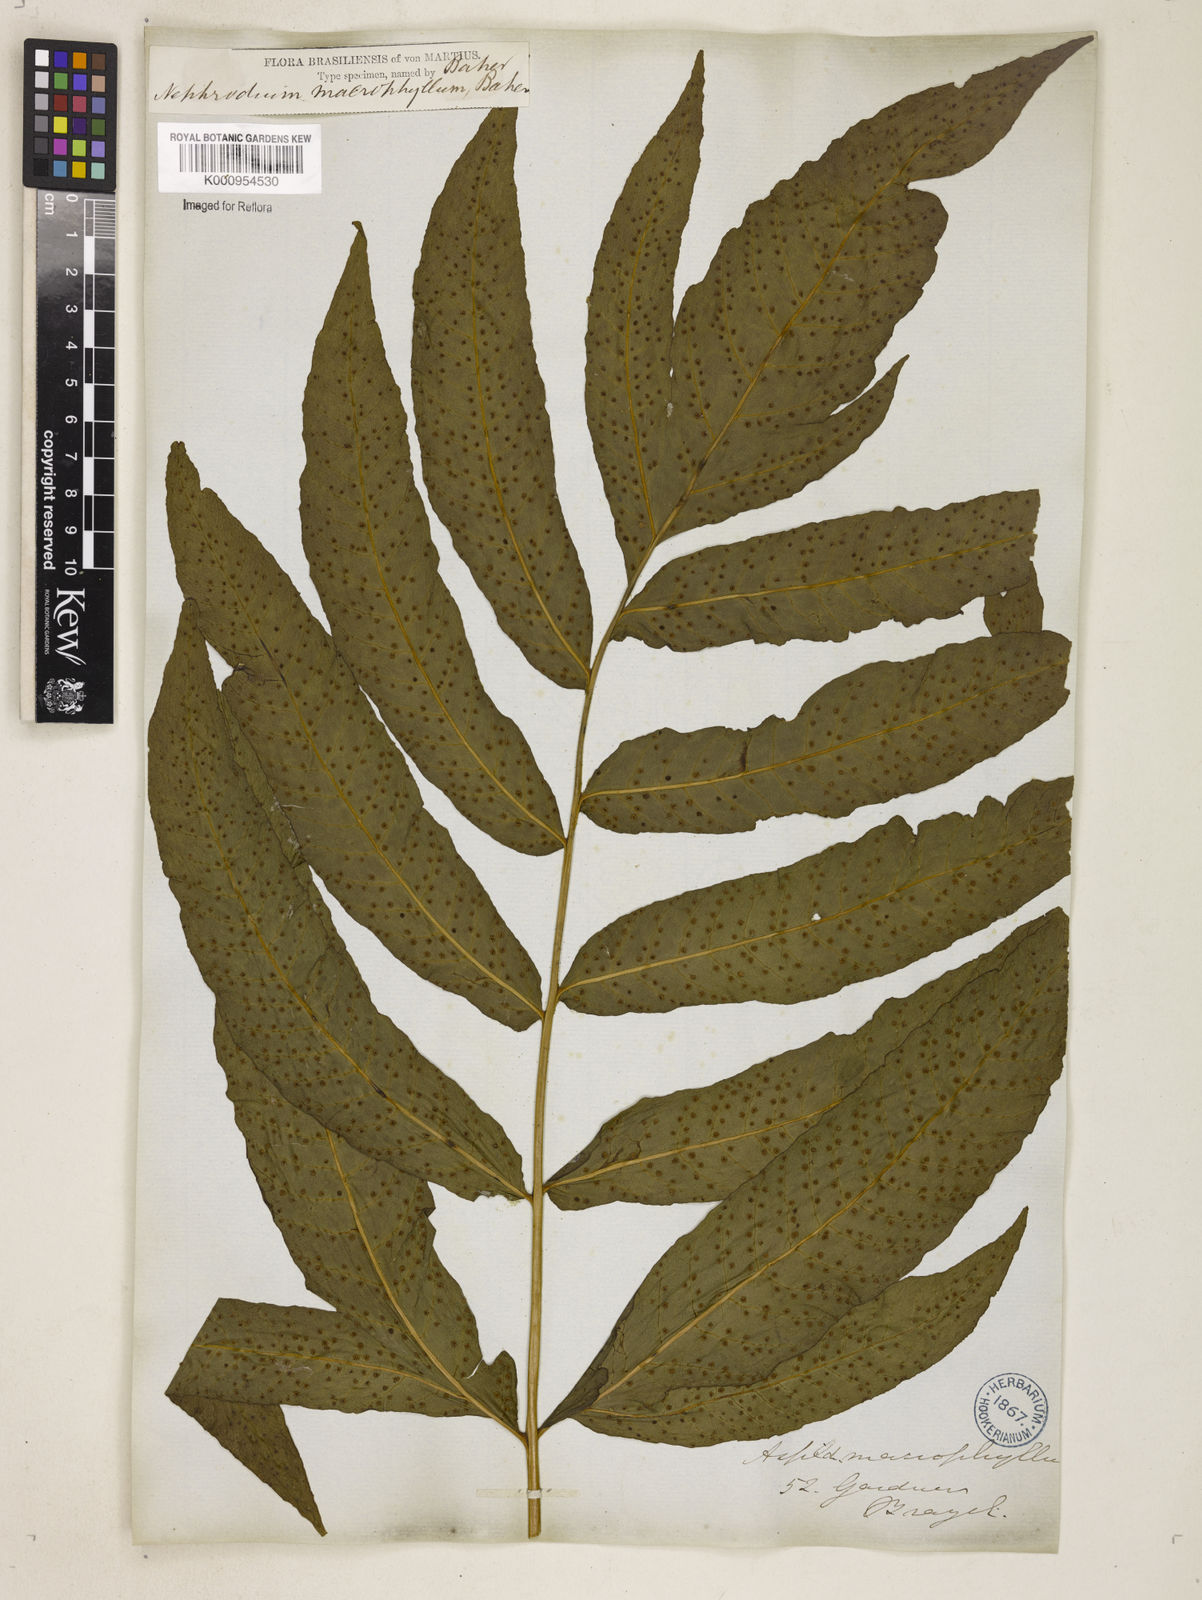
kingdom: Plantae
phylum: Tracheophyta
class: Polypodiopsida
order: Polypodiales
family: Tectariaceae
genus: Tectaria
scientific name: Tectaria incisa
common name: Incised halberd fern
